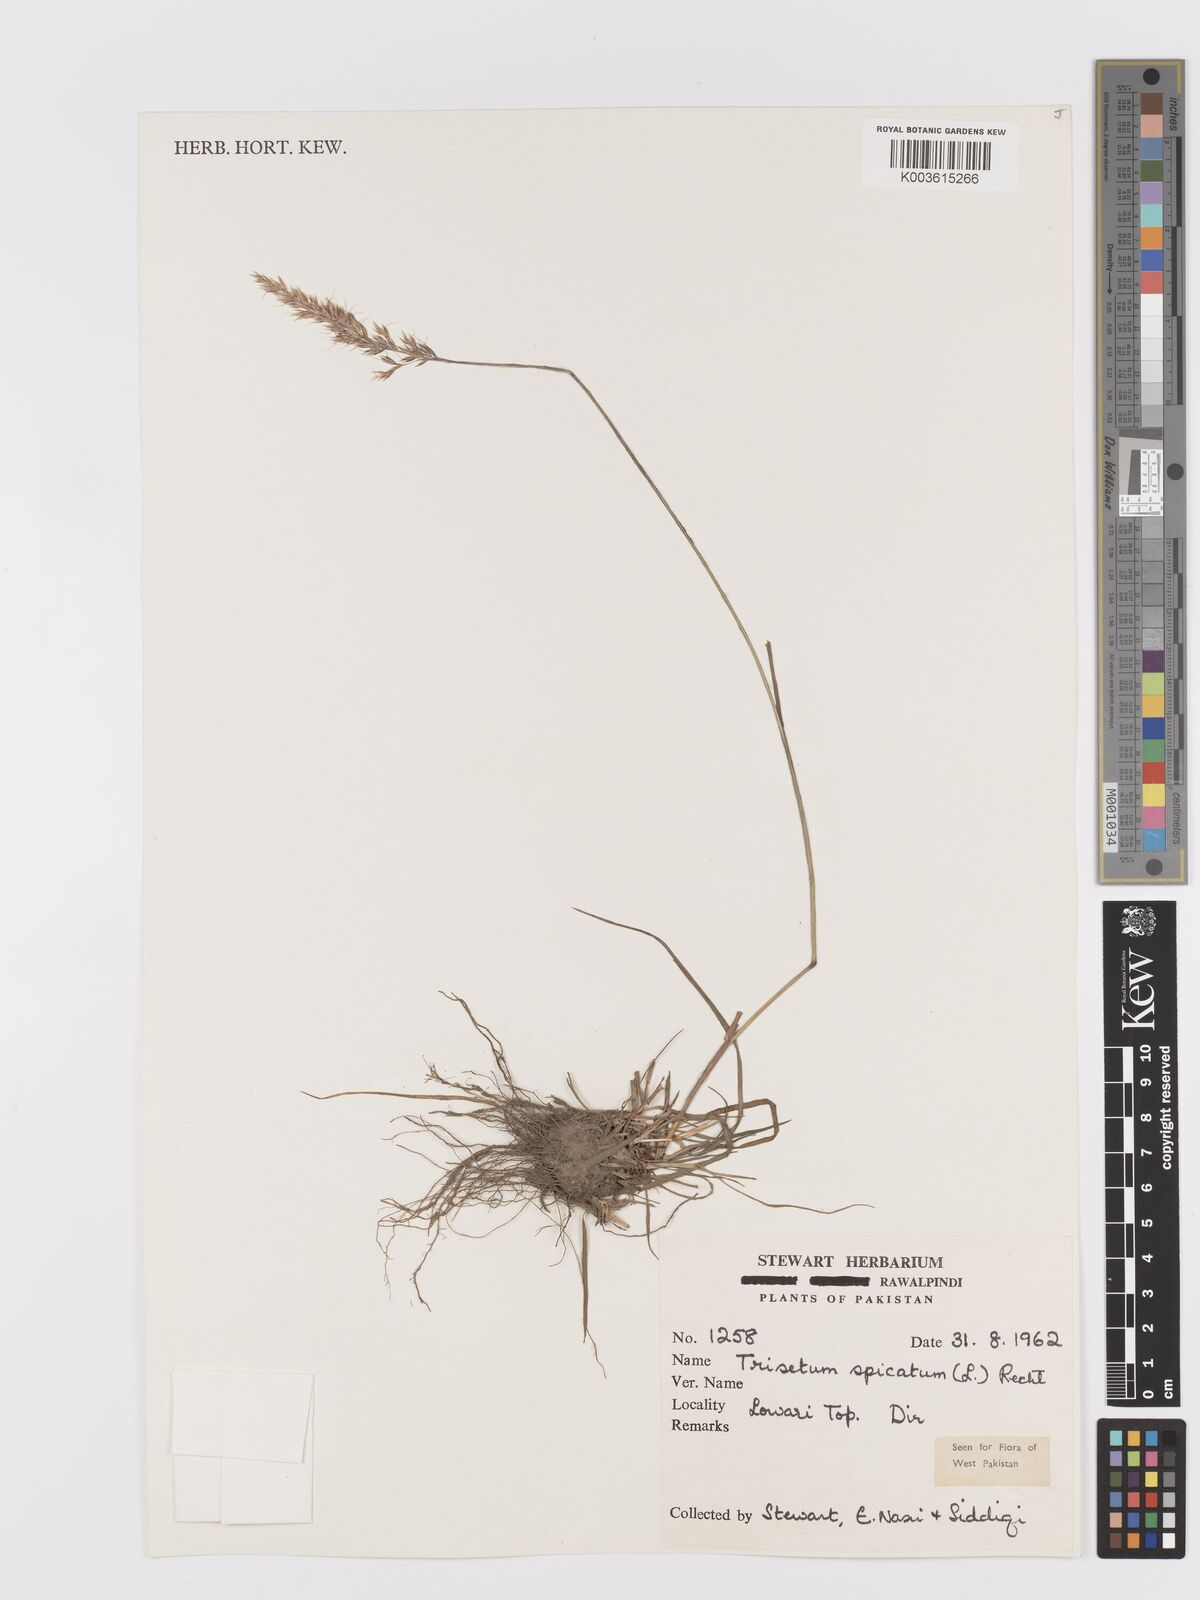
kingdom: Plantae
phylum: Tracheophyta
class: Liliopsida
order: Poales
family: Poaceae
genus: Koeleria
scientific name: Koeleria spicata
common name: Mountain trisetum
